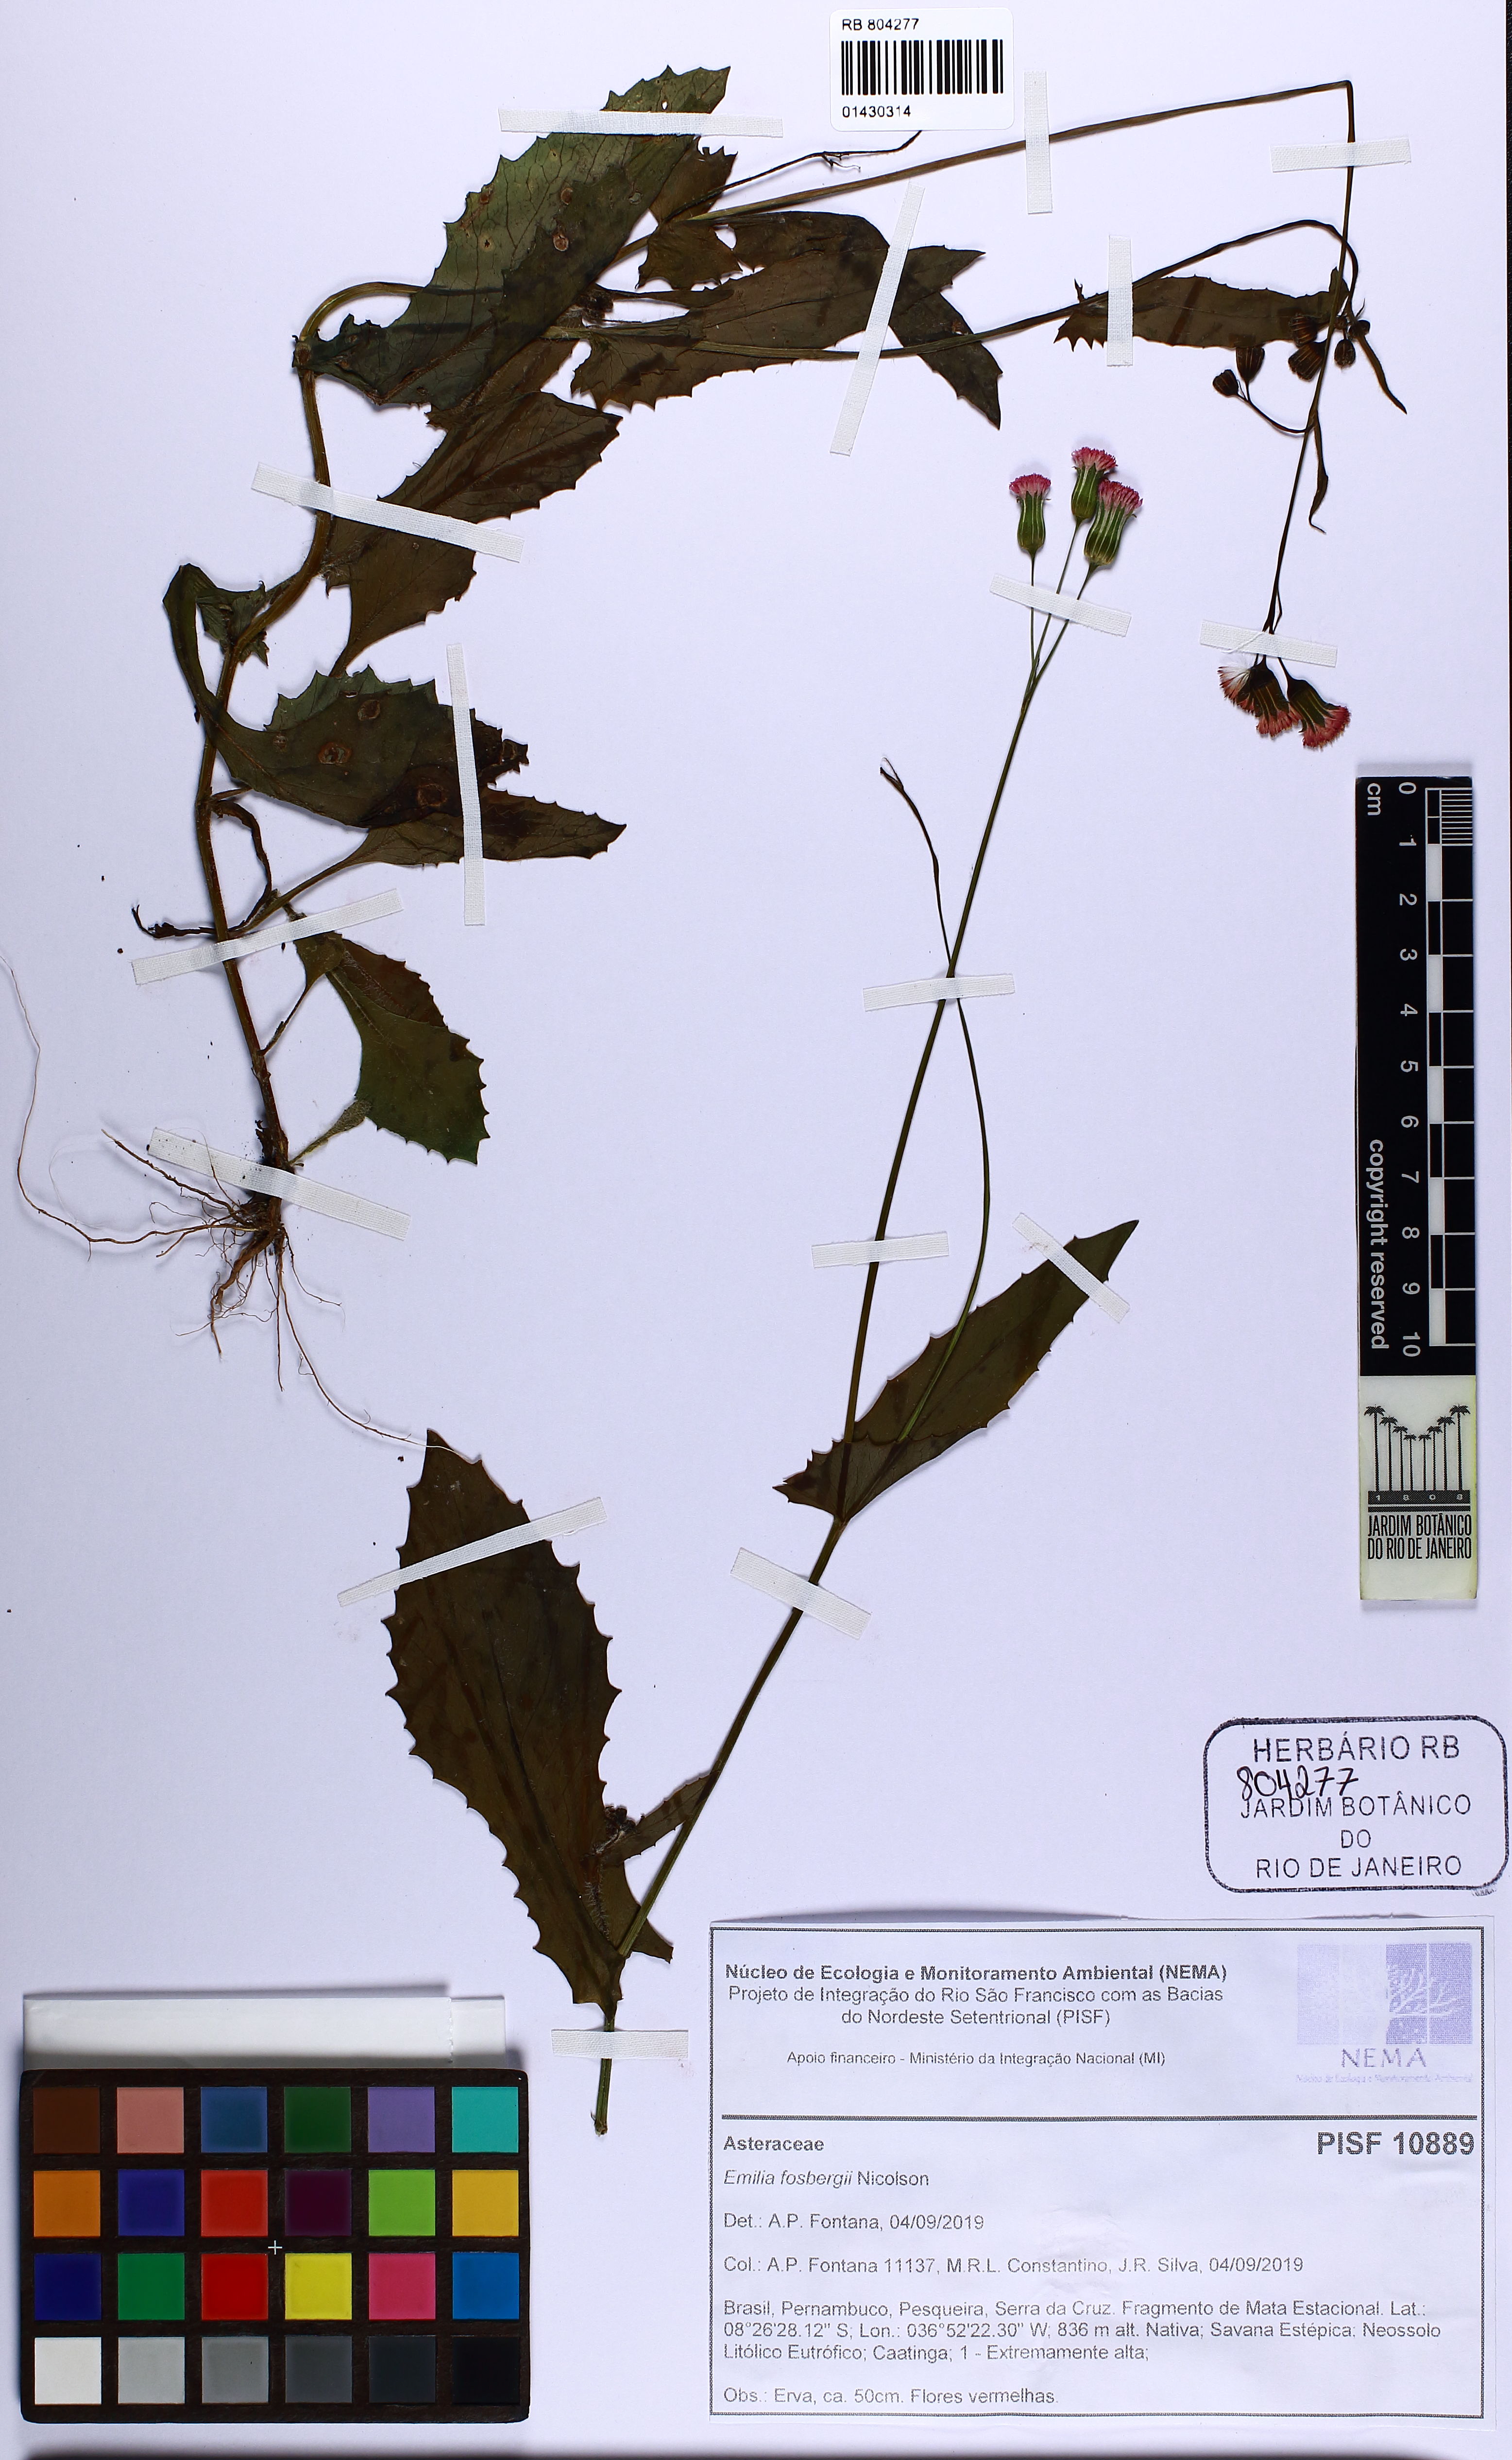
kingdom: Plantae
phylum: Tracheophyta
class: Magnoliopsida
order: Asterales
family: Asteraceae
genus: Emilia
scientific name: Emilia fosbergii
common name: Florida tasselflower
